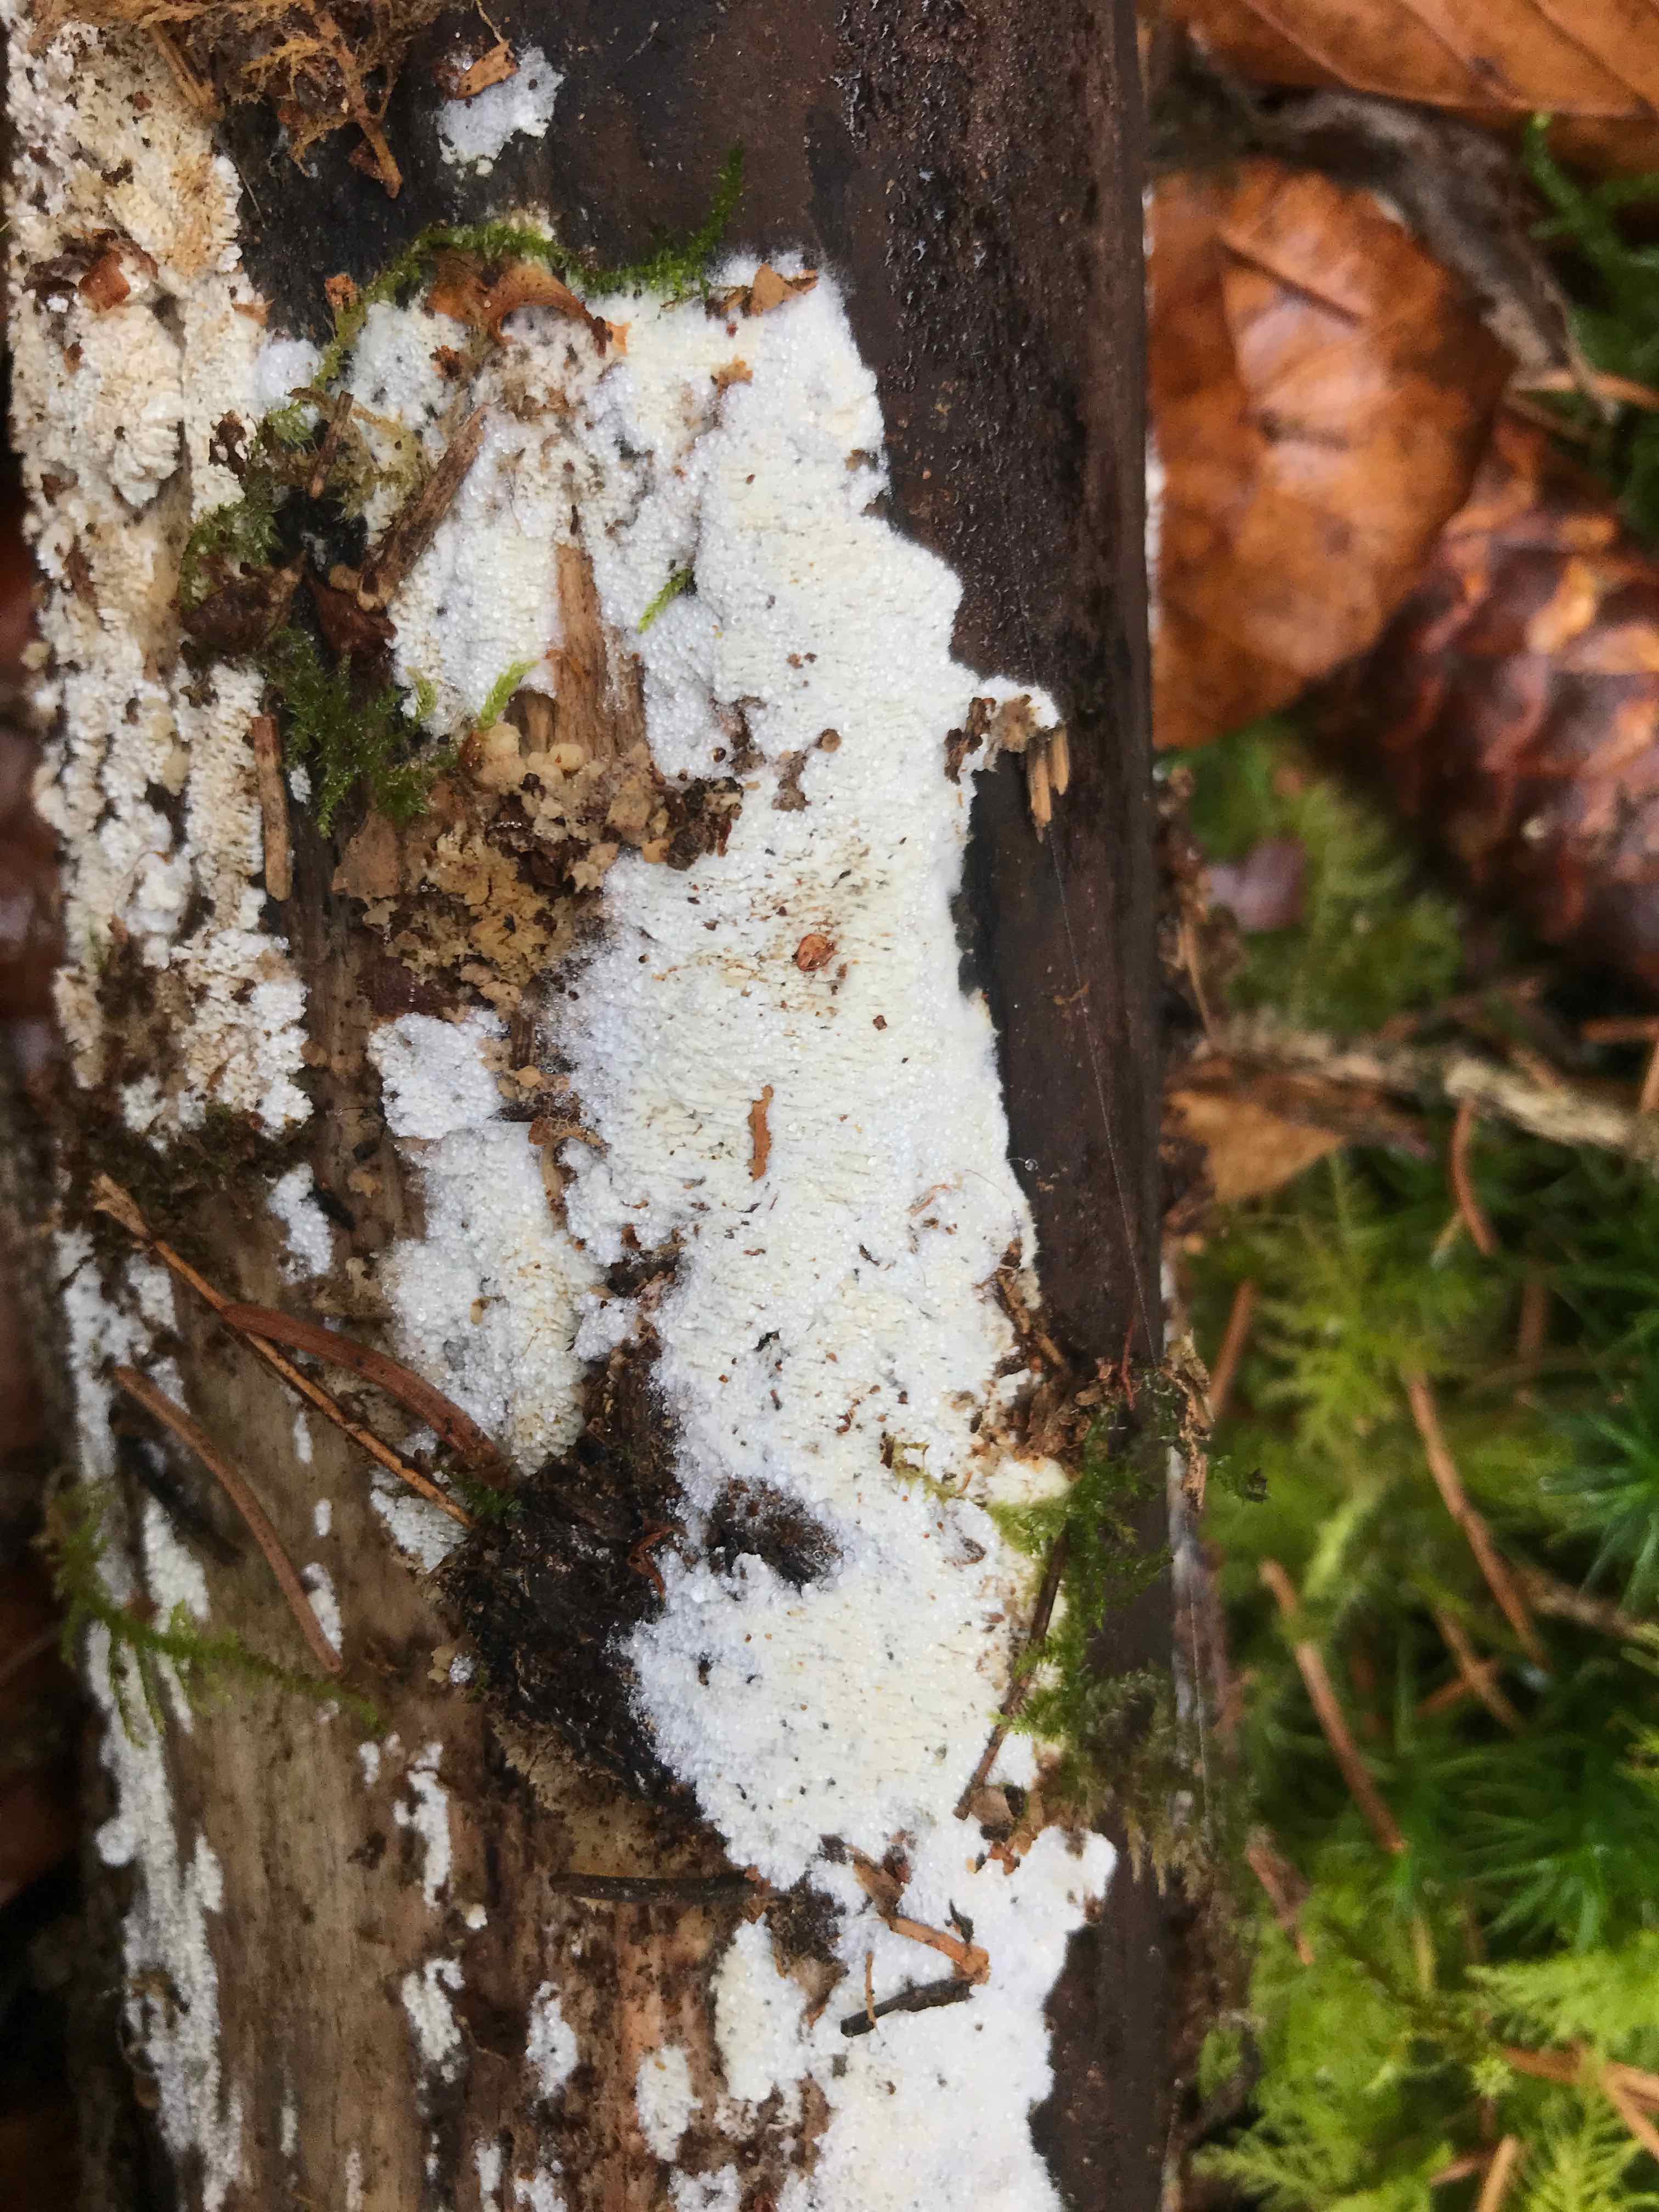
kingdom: Fungi
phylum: Basidiomycota
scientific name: Basidiomycota
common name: basidiesvampe
